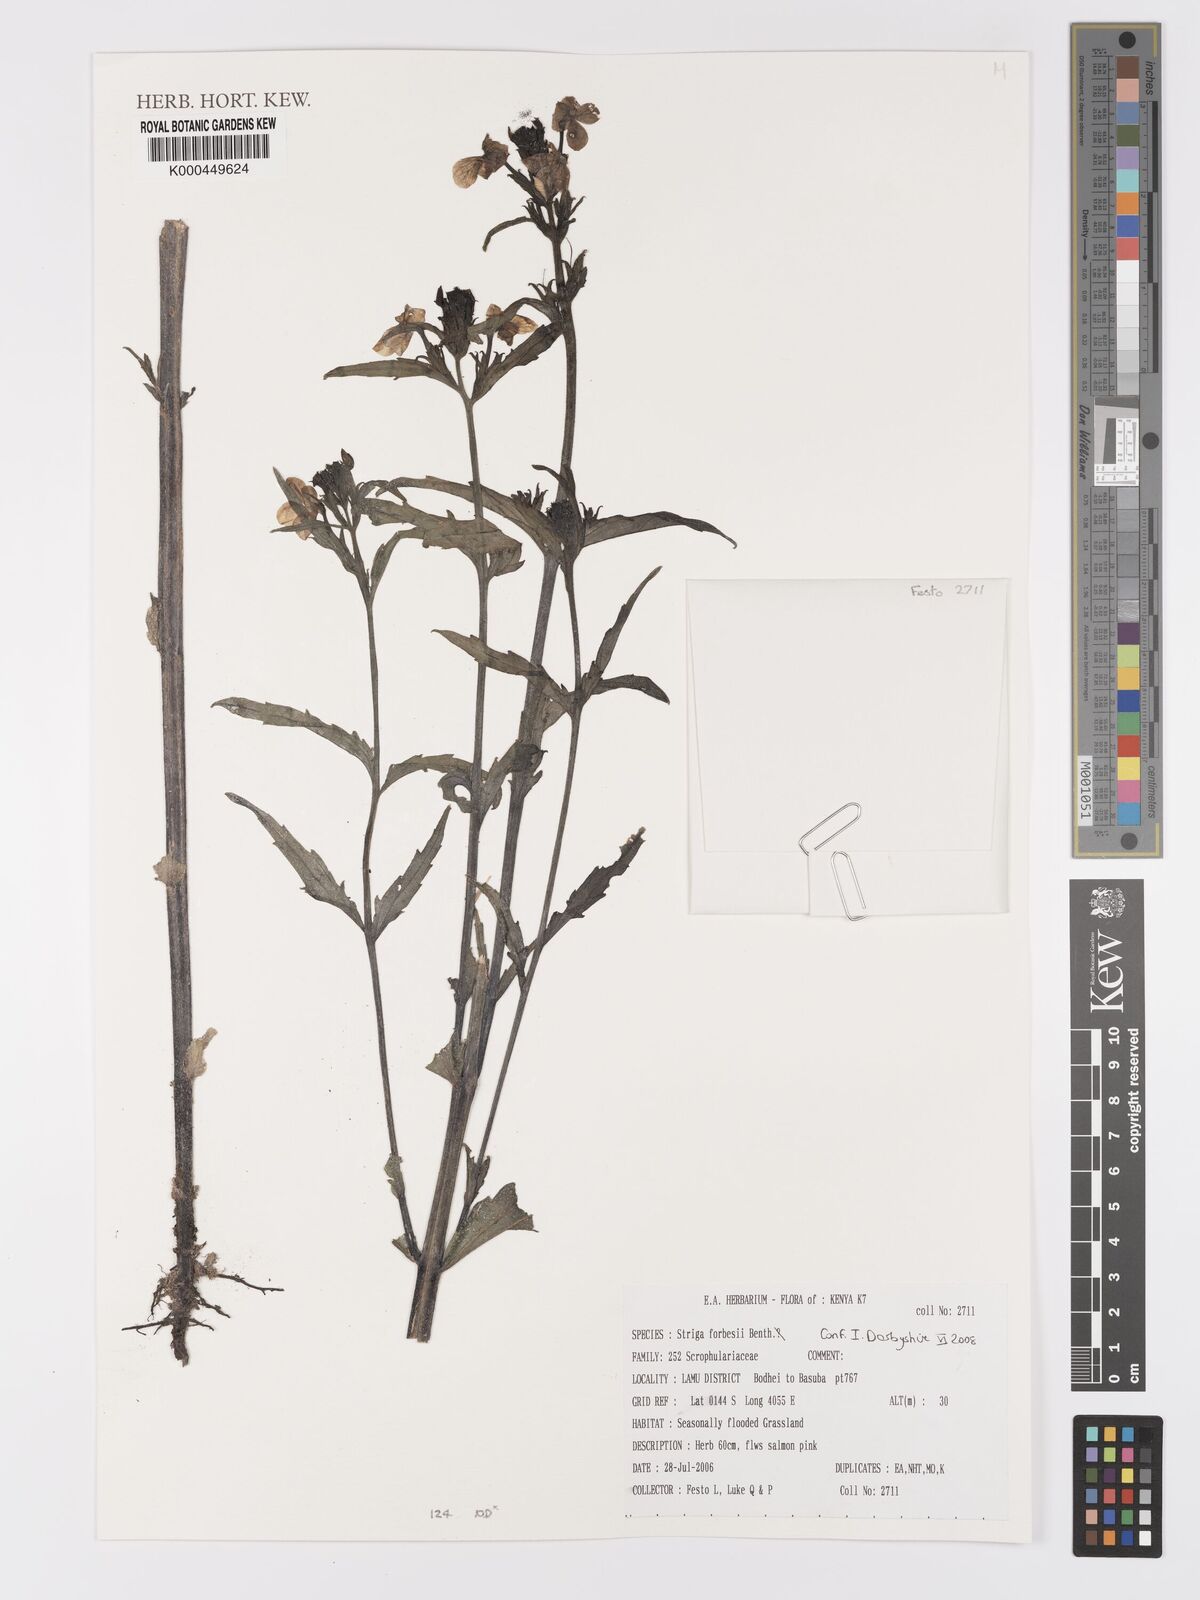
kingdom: Plantae
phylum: Tracheophyta
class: Magnoliopsida
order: Lamiales
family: Orobanchaceae
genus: Striga
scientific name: Striga forbesii
